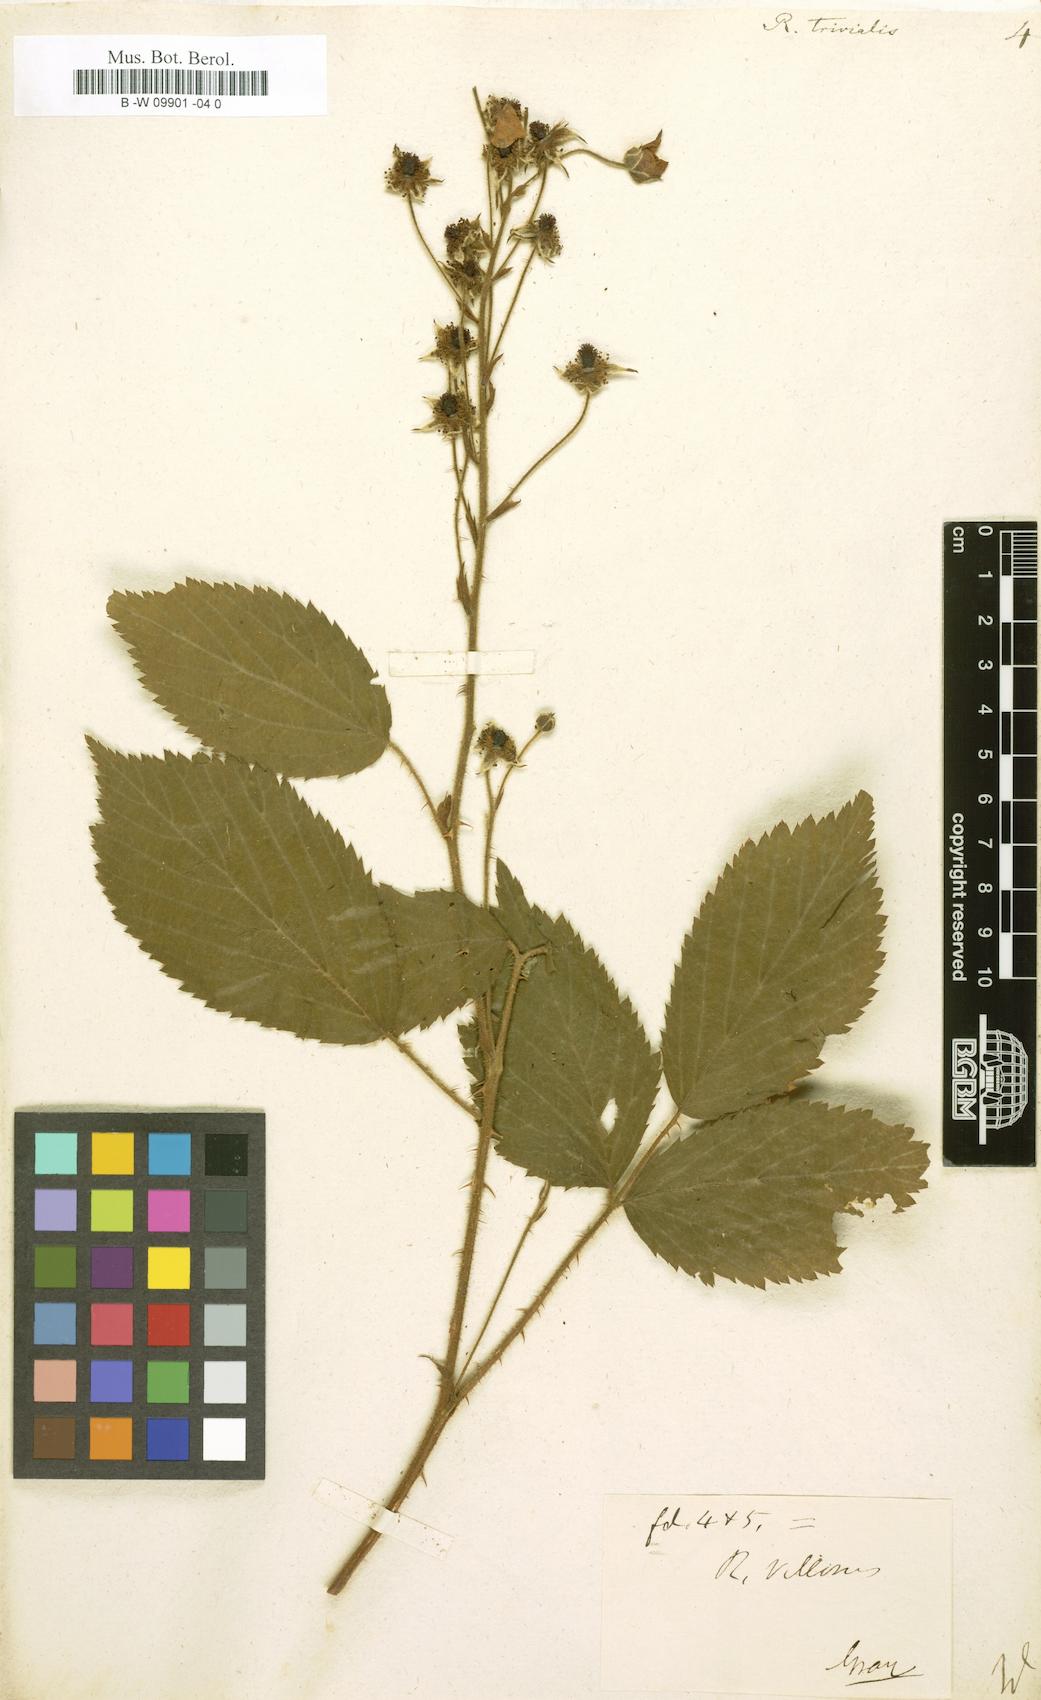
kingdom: Plantae
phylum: Tracheophyta
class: Magnoliopsida
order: Rosales
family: Rosaceae
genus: Rubus
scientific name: Rubus trivialis
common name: Southern dewberry
